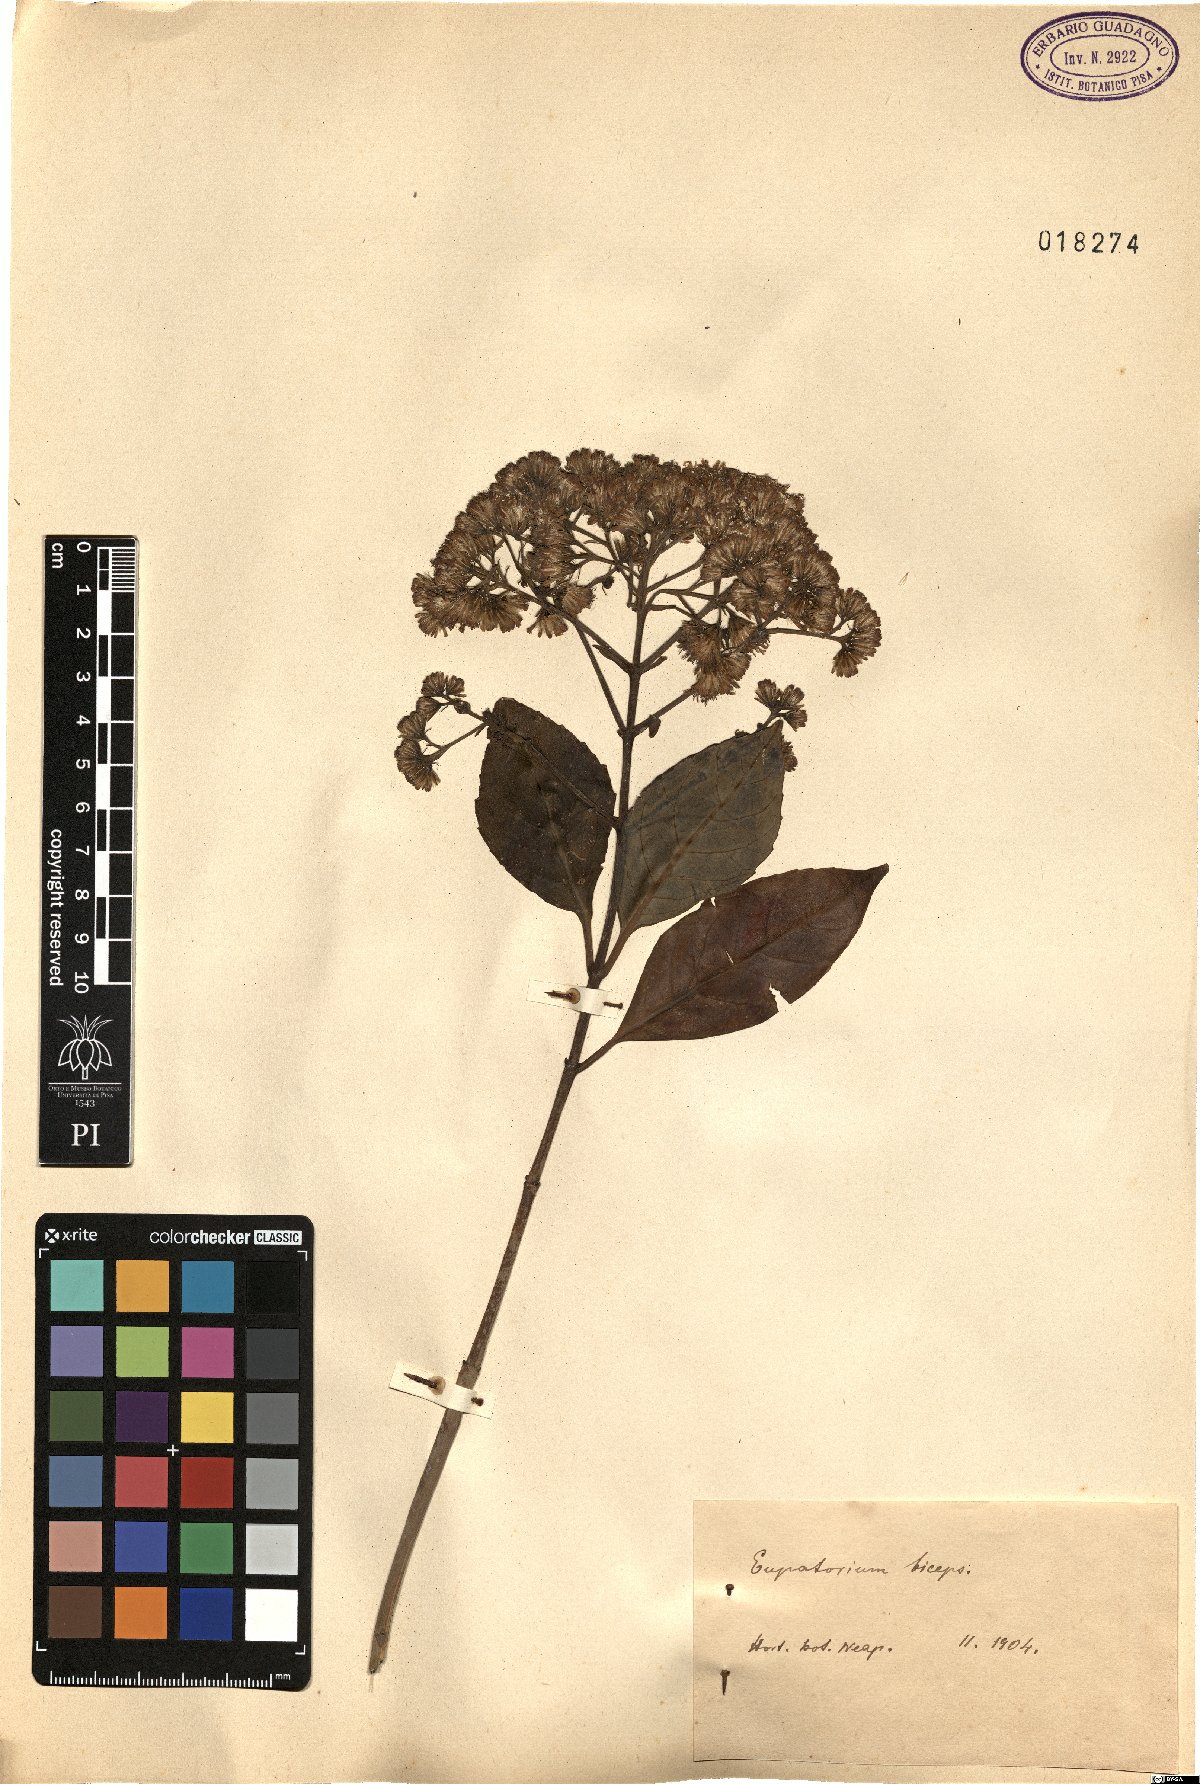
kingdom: Plantae
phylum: Tracheophyta
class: Magnoliopsida
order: Asterales
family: Asteraceae
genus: Ageratina
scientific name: Ageratina ligustrina
